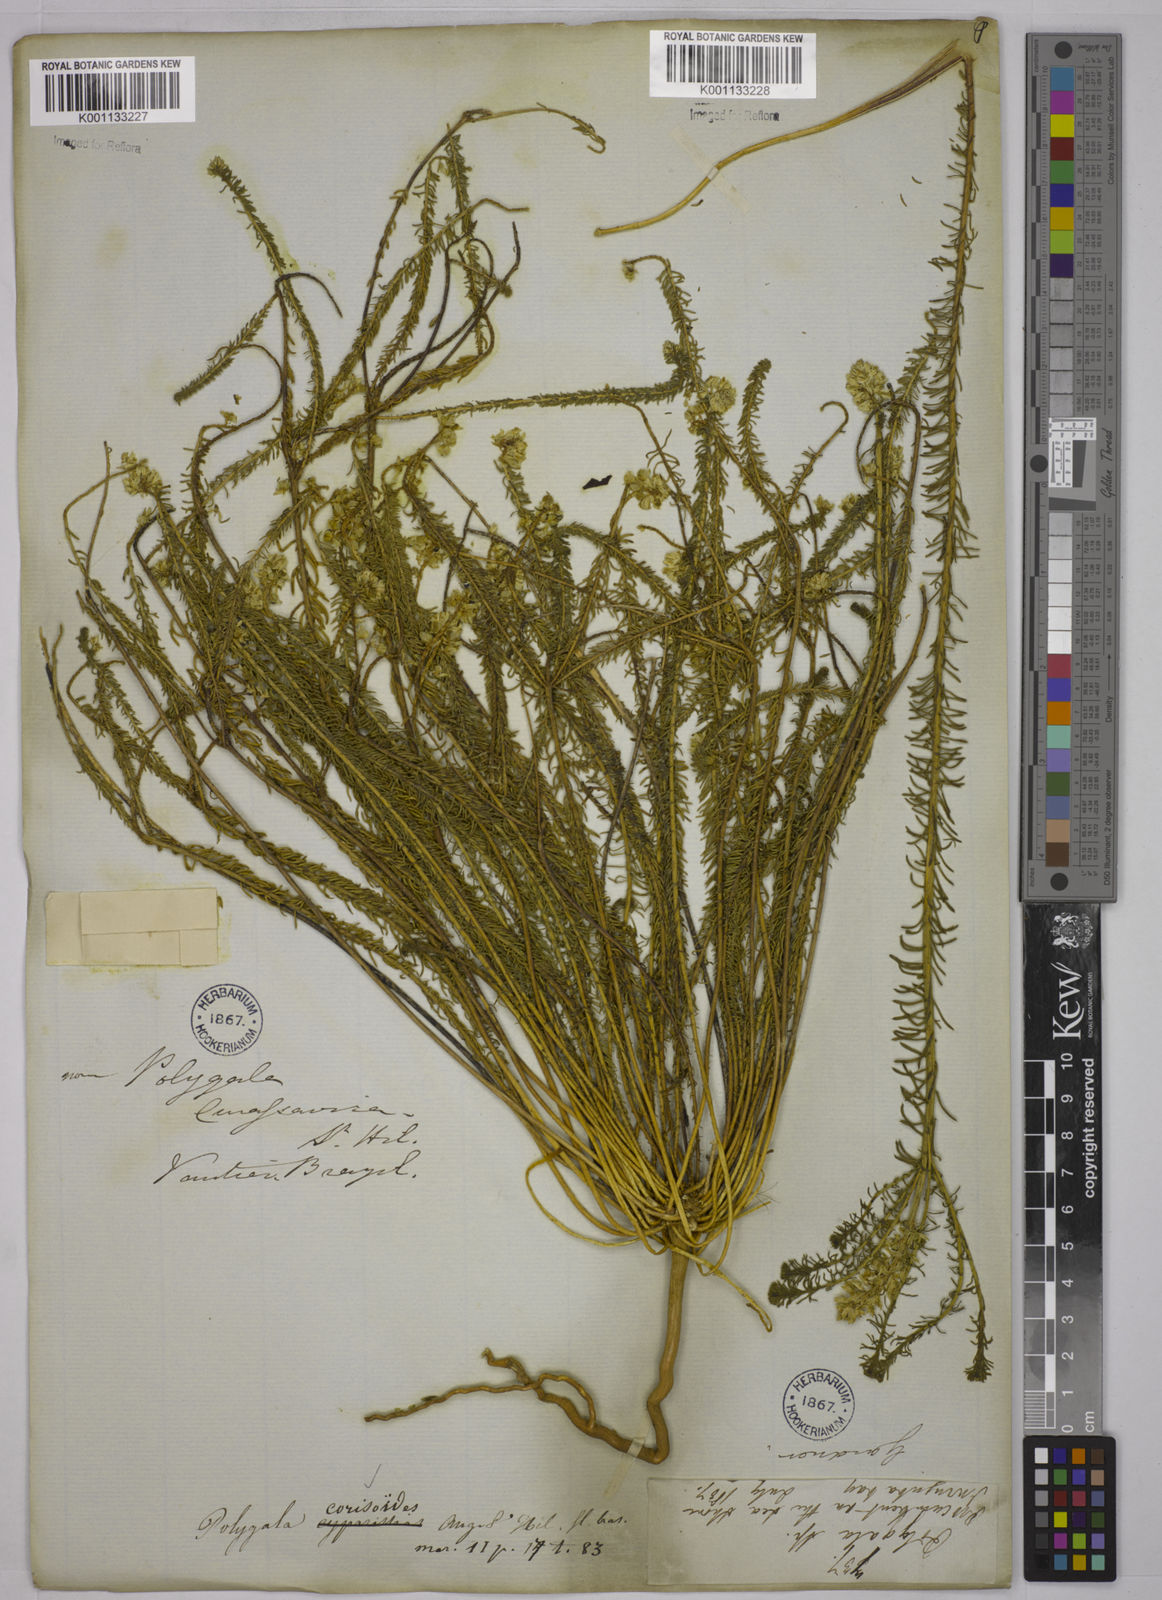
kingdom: Plantae
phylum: Tracheophyta
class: Magnoliopsida
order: Fabales
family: Polygalaceae
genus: Polygala
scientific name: Polygala cyparissias
